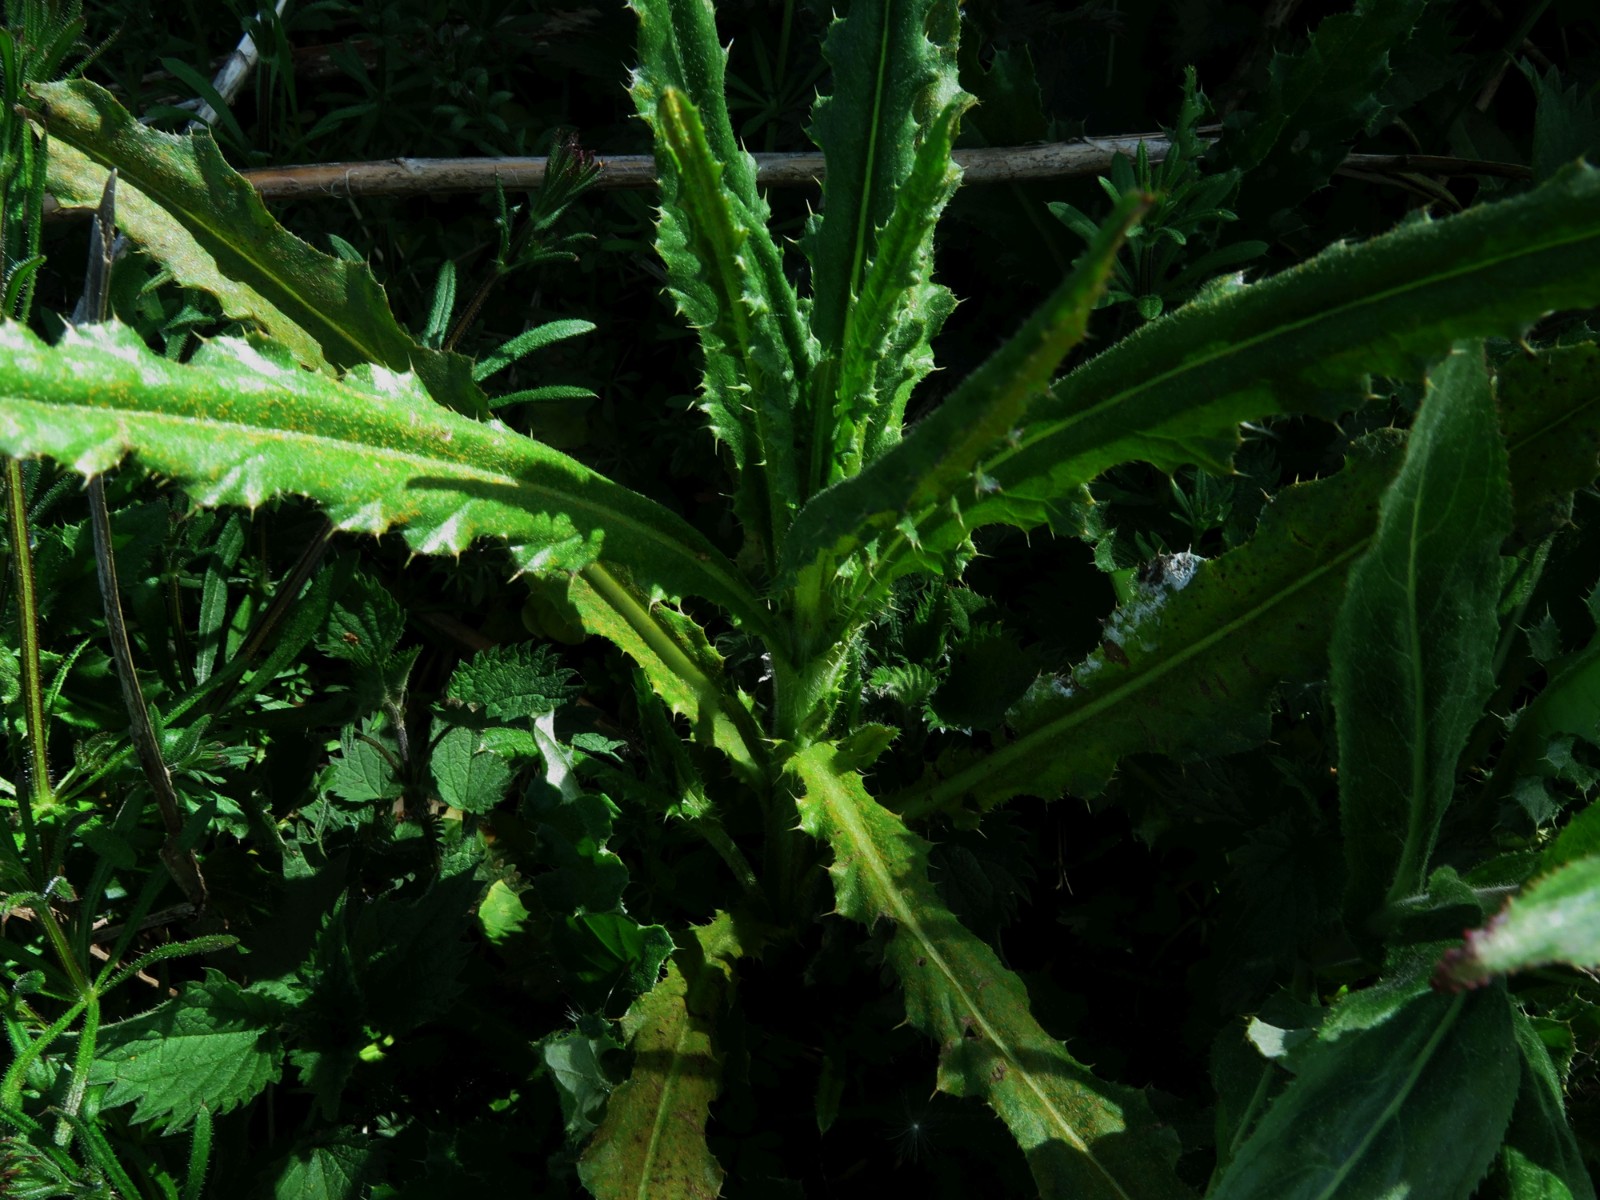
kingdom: Fungi
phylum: Basidiomycota
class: Pucciniomycetes
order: Pucciniales
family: Pucciniaceae
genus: Puccinia
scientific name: Puccinia suaveolens
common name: tidsel-tvecellerust
